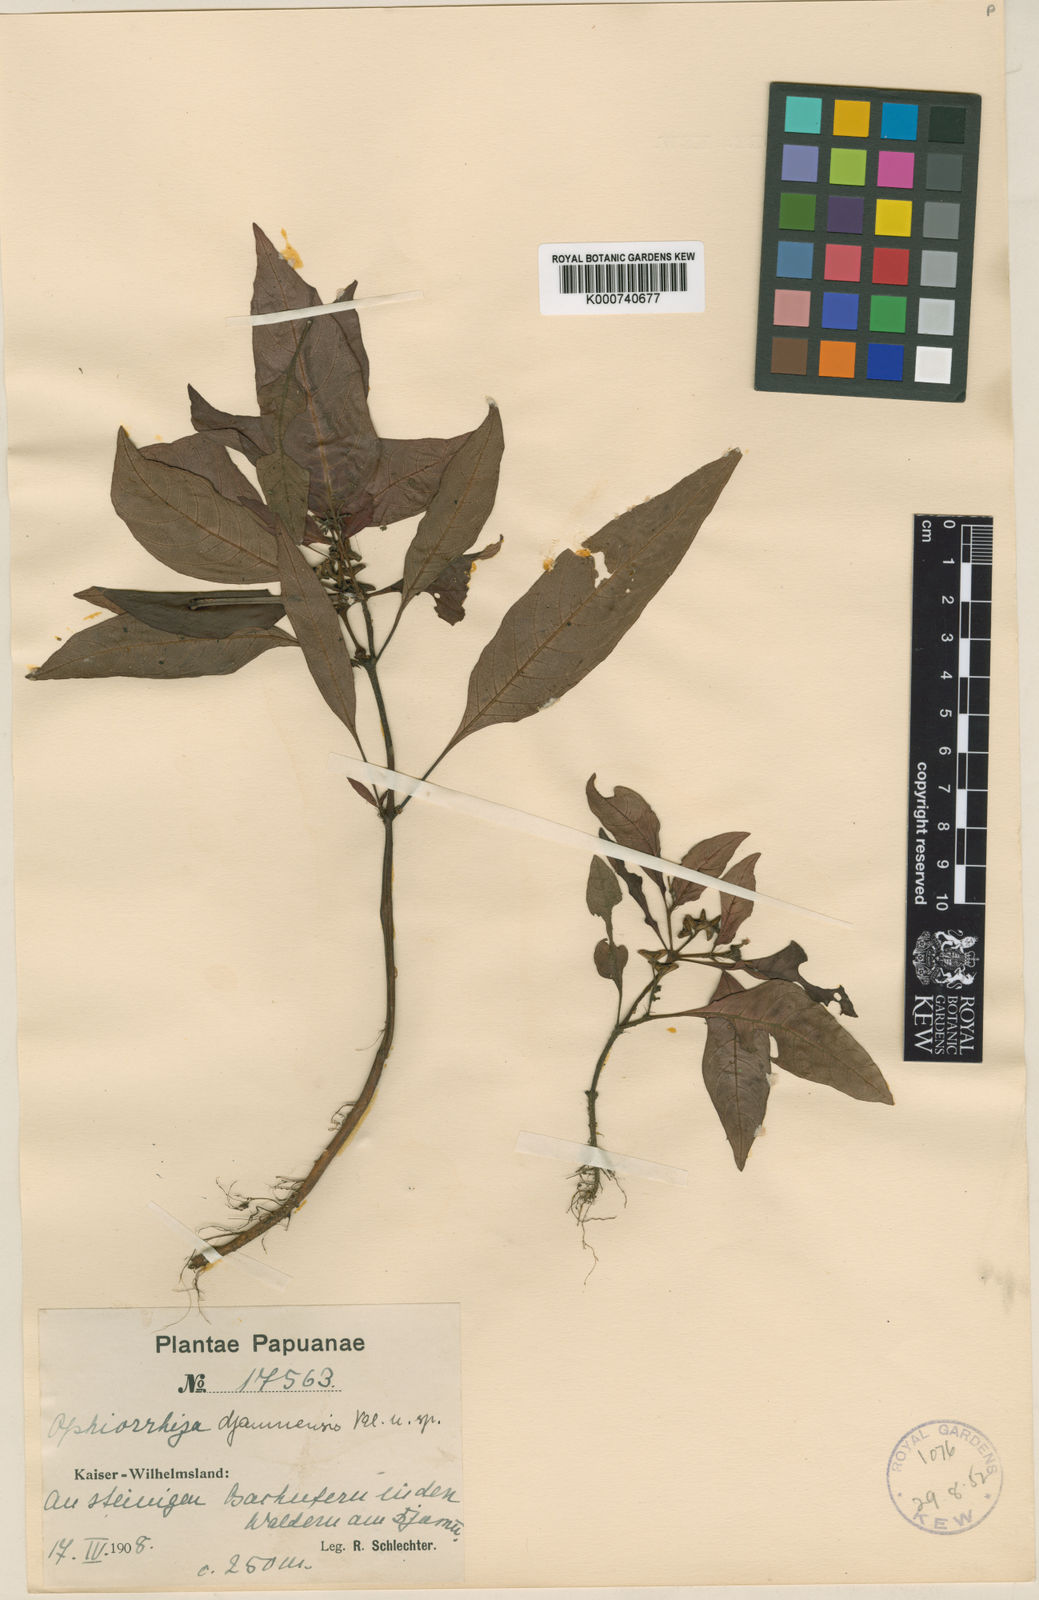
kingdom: Plantae
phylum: Tracheophyta
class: Magnoliopsida
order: Gentianales
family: Rubiaceae
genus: Ophiorrhiza
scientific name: Ophiorrhiza djamuensis
